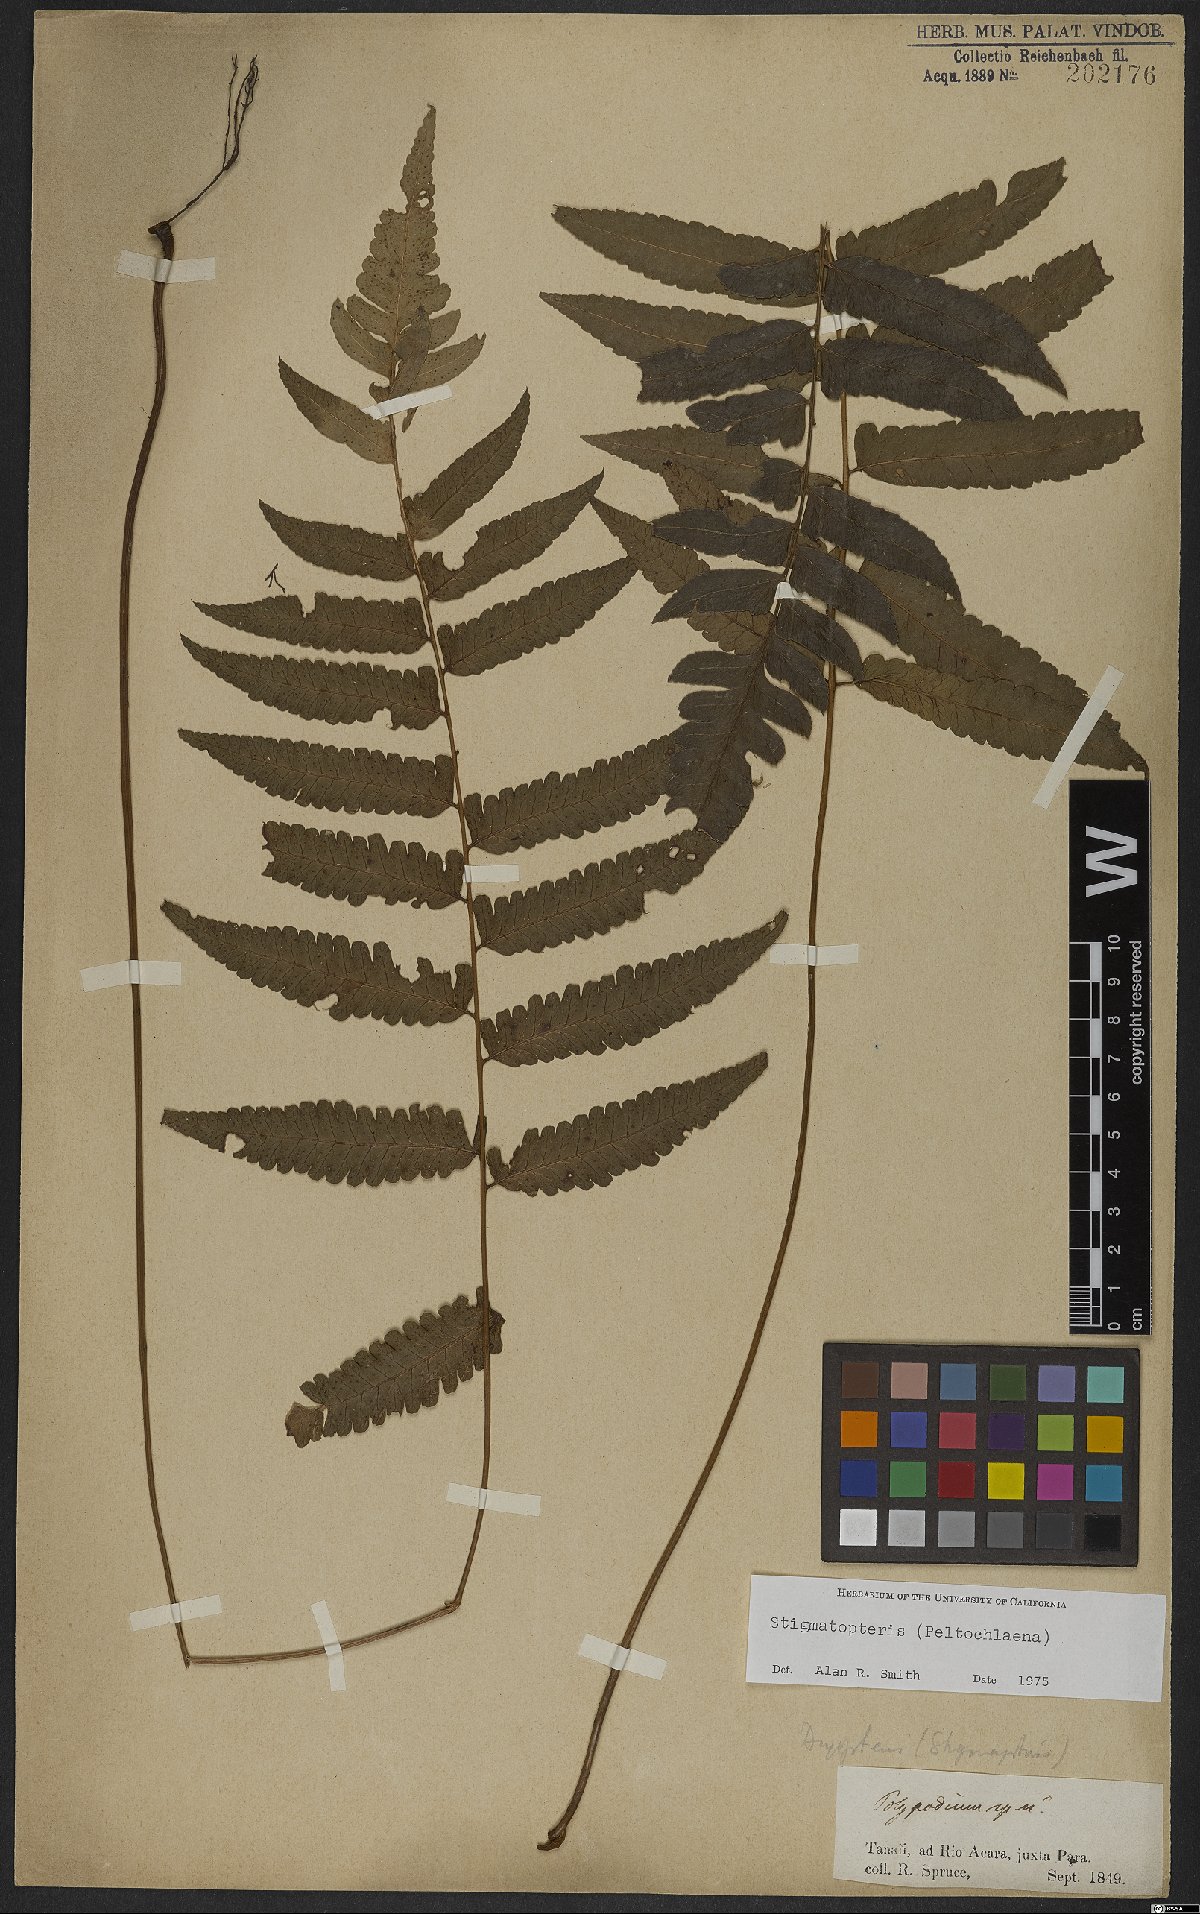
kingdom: Plantae
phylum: Tracheophyta
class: Polypodiopsida
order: Polypodiales
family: Dryopteridaceae
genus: Stigmatopteris
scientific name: Stigmatopteris
